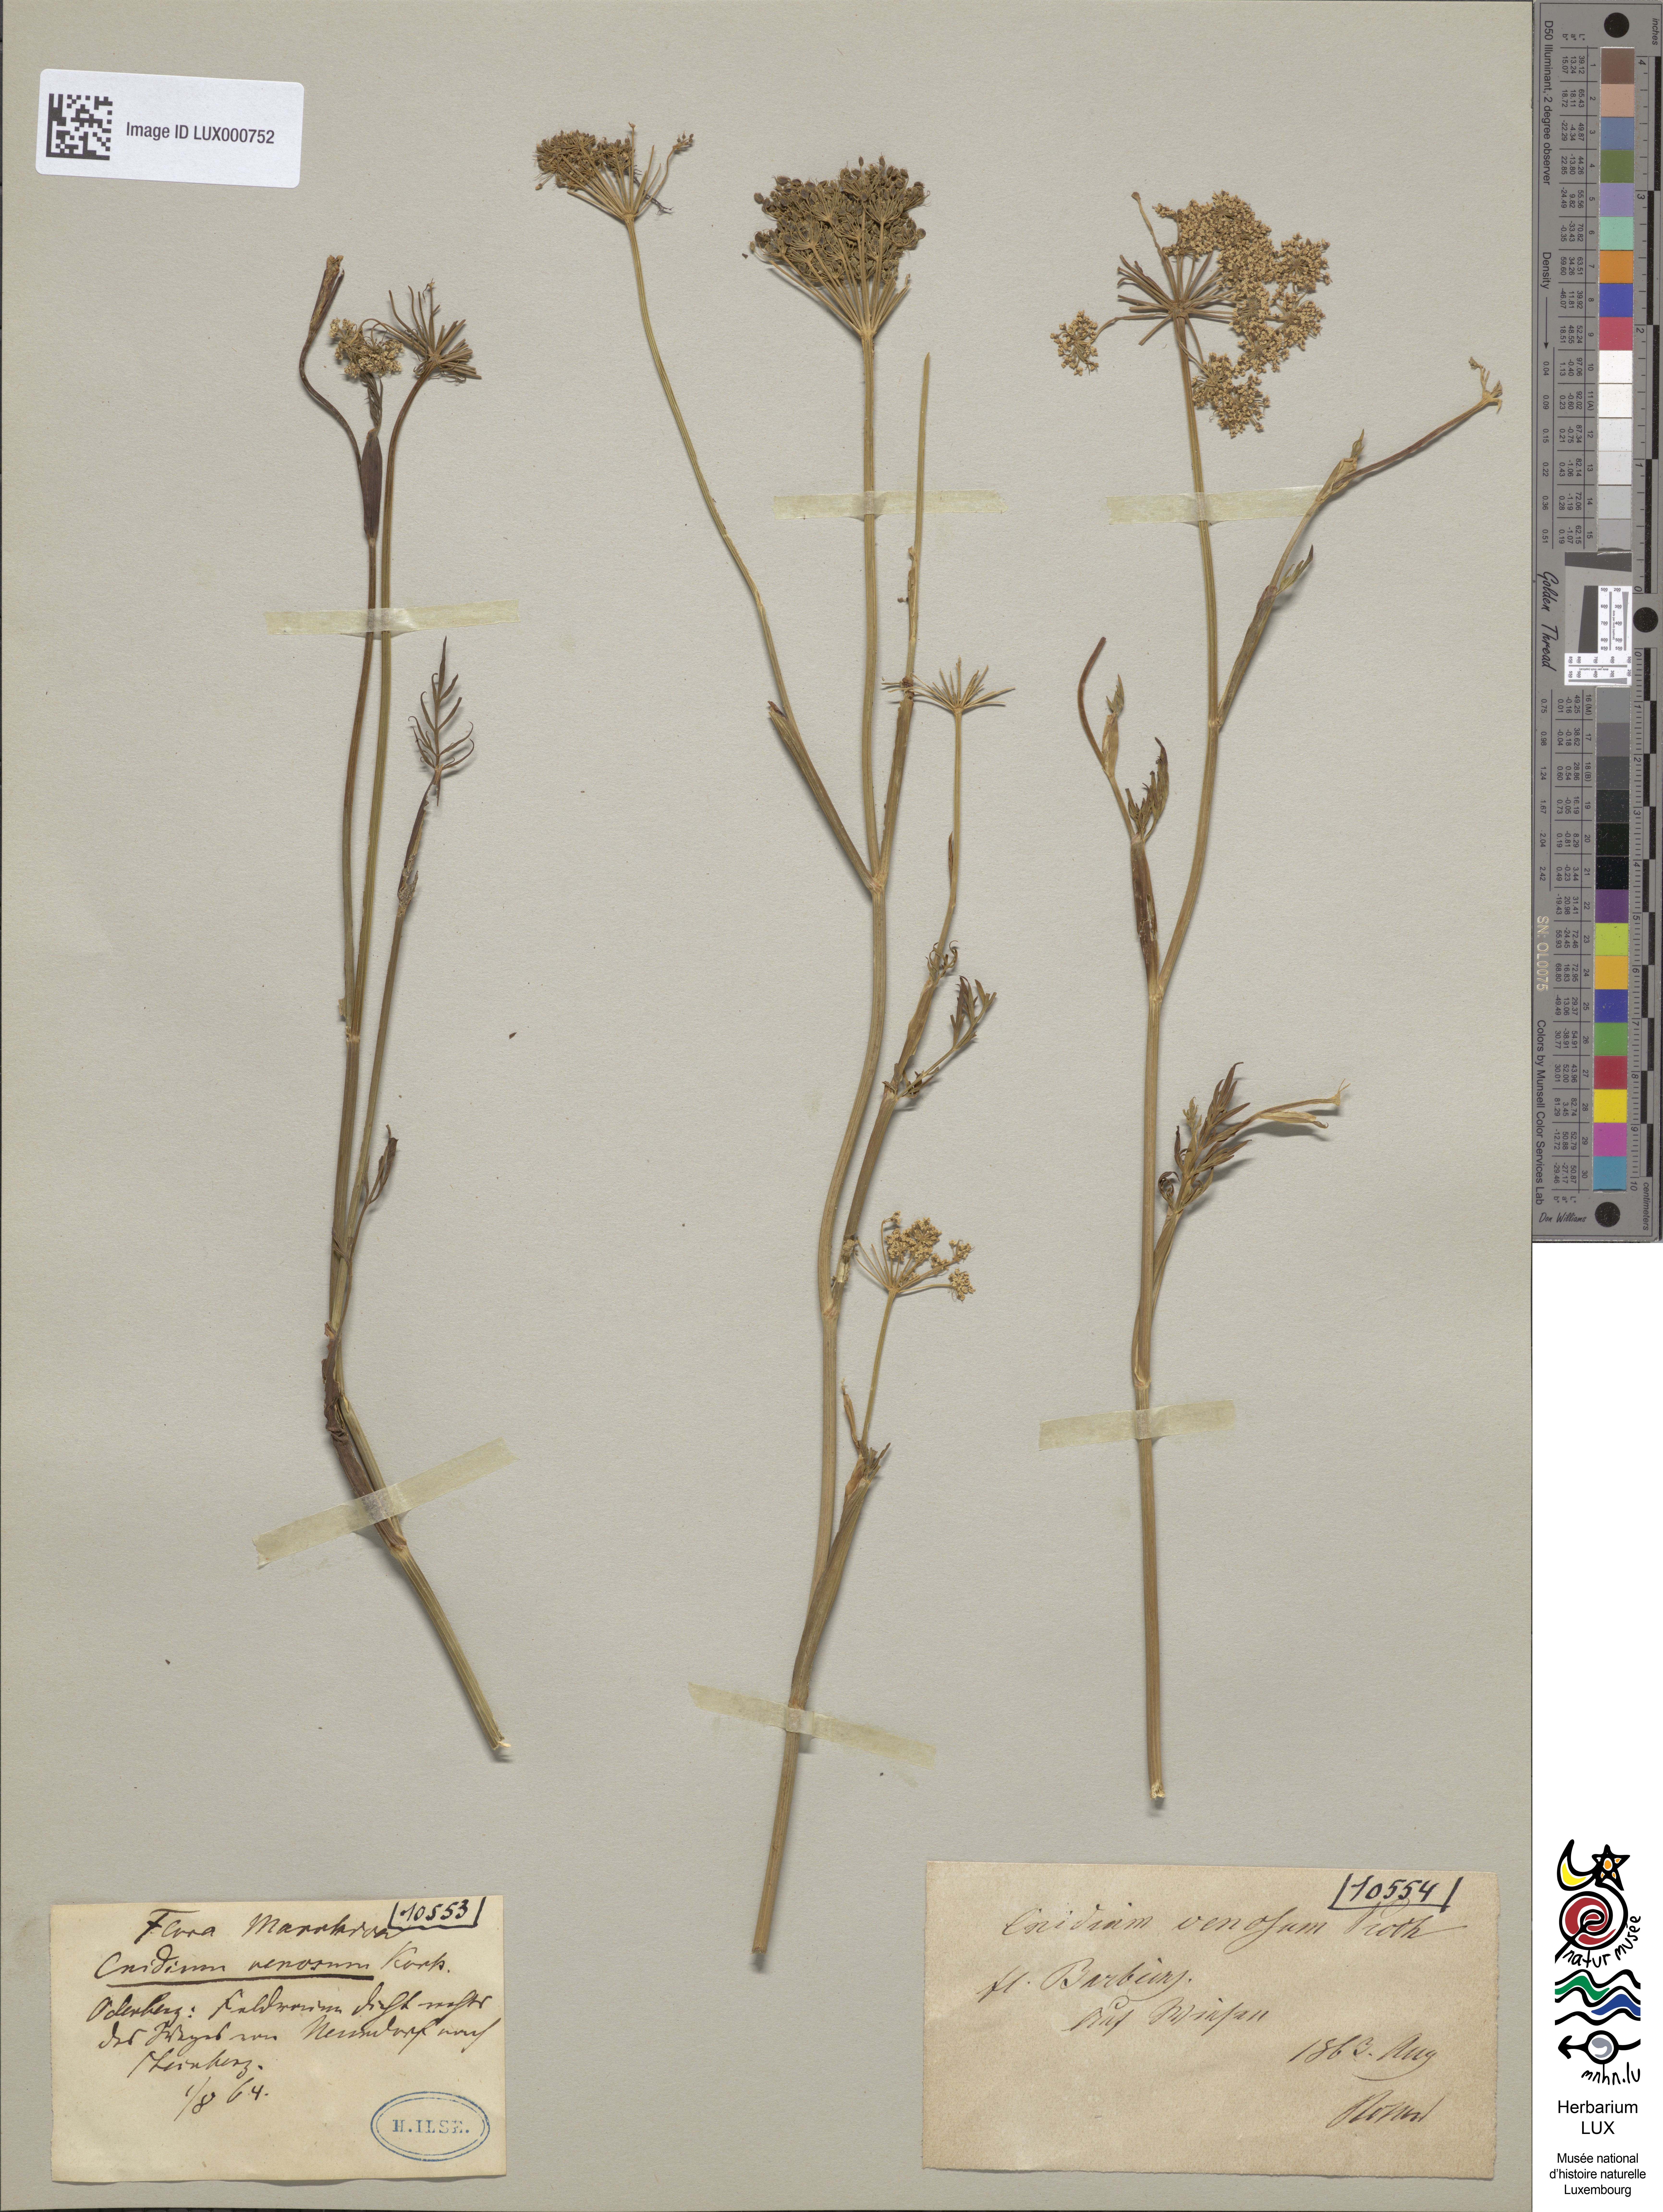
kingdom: Plantae
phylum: Tracheophyta
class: Magnoliopsida
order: Apiales
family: Apiaceae
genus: Kadenia
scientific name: Kadenia dubia
